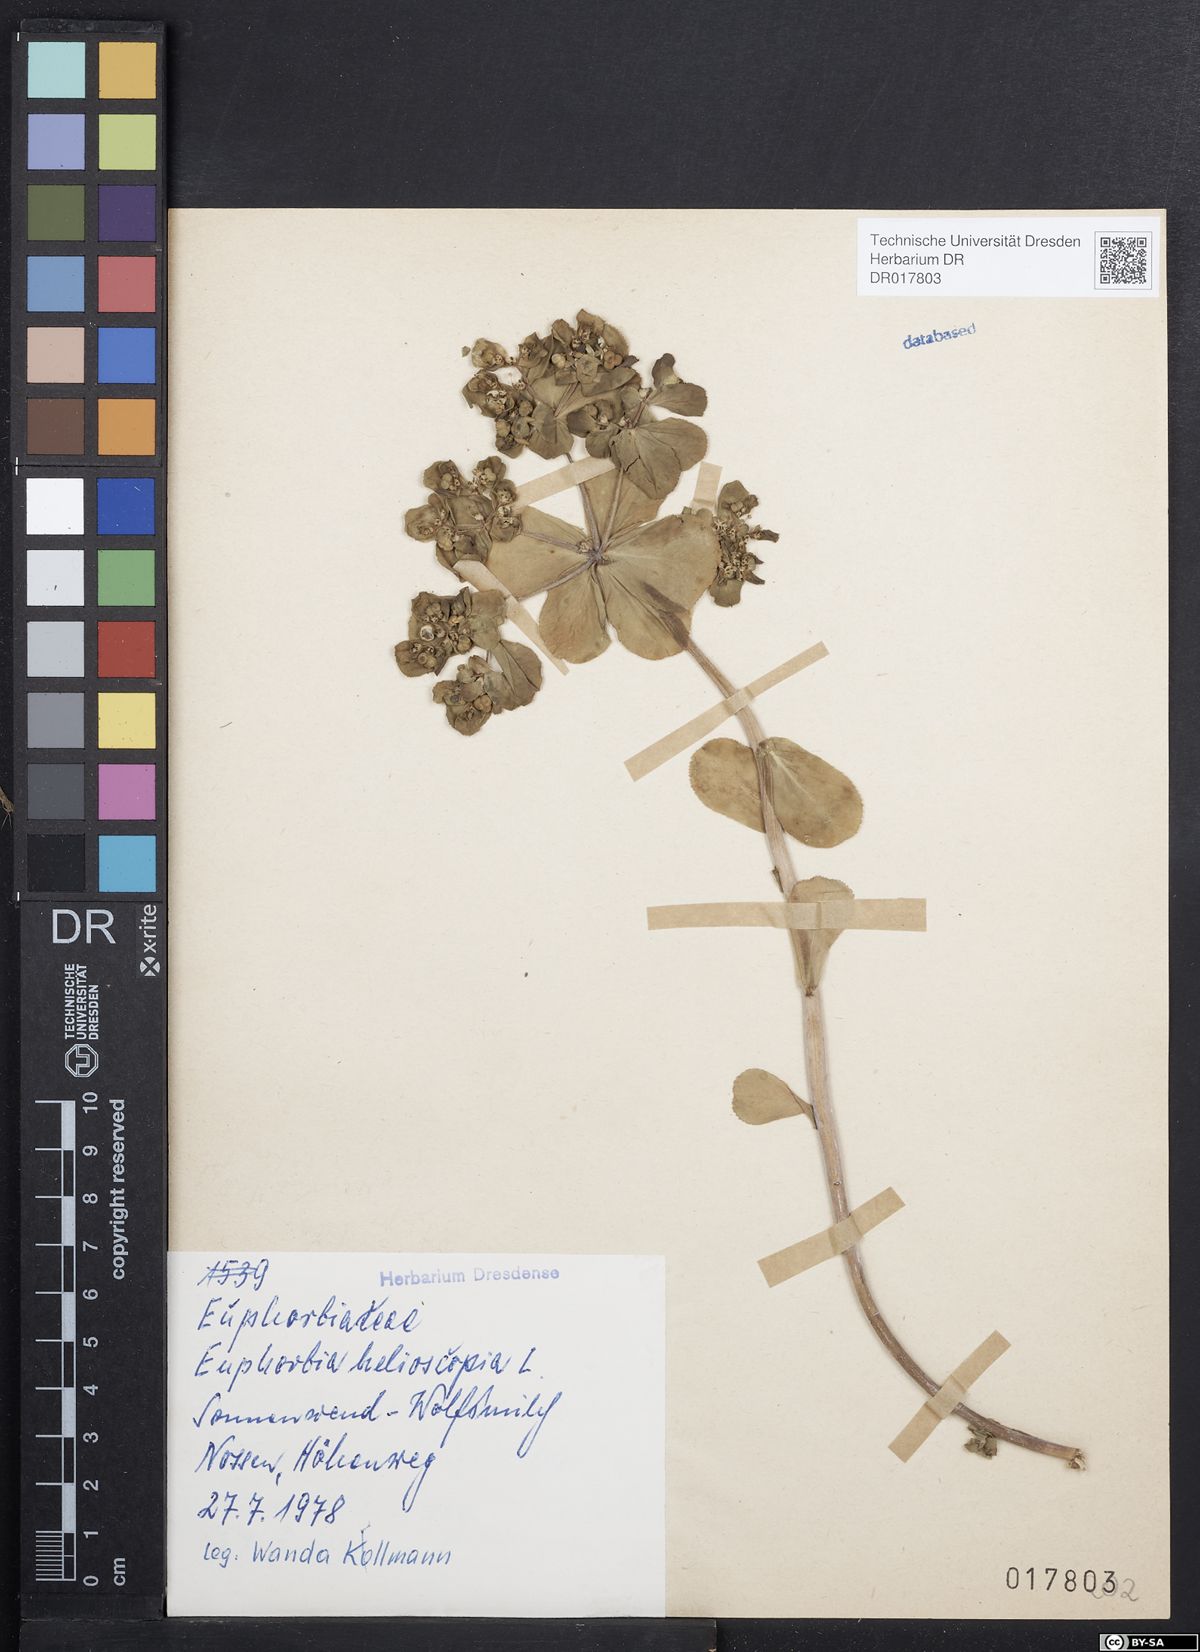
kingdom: Plantae
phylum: Tracheophyta
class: Magnoliopsida
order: Malpighiales
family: Euphorbiaceae
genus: Euphorbia
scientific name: Euphorbia helioscopia
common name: Sun spurge
